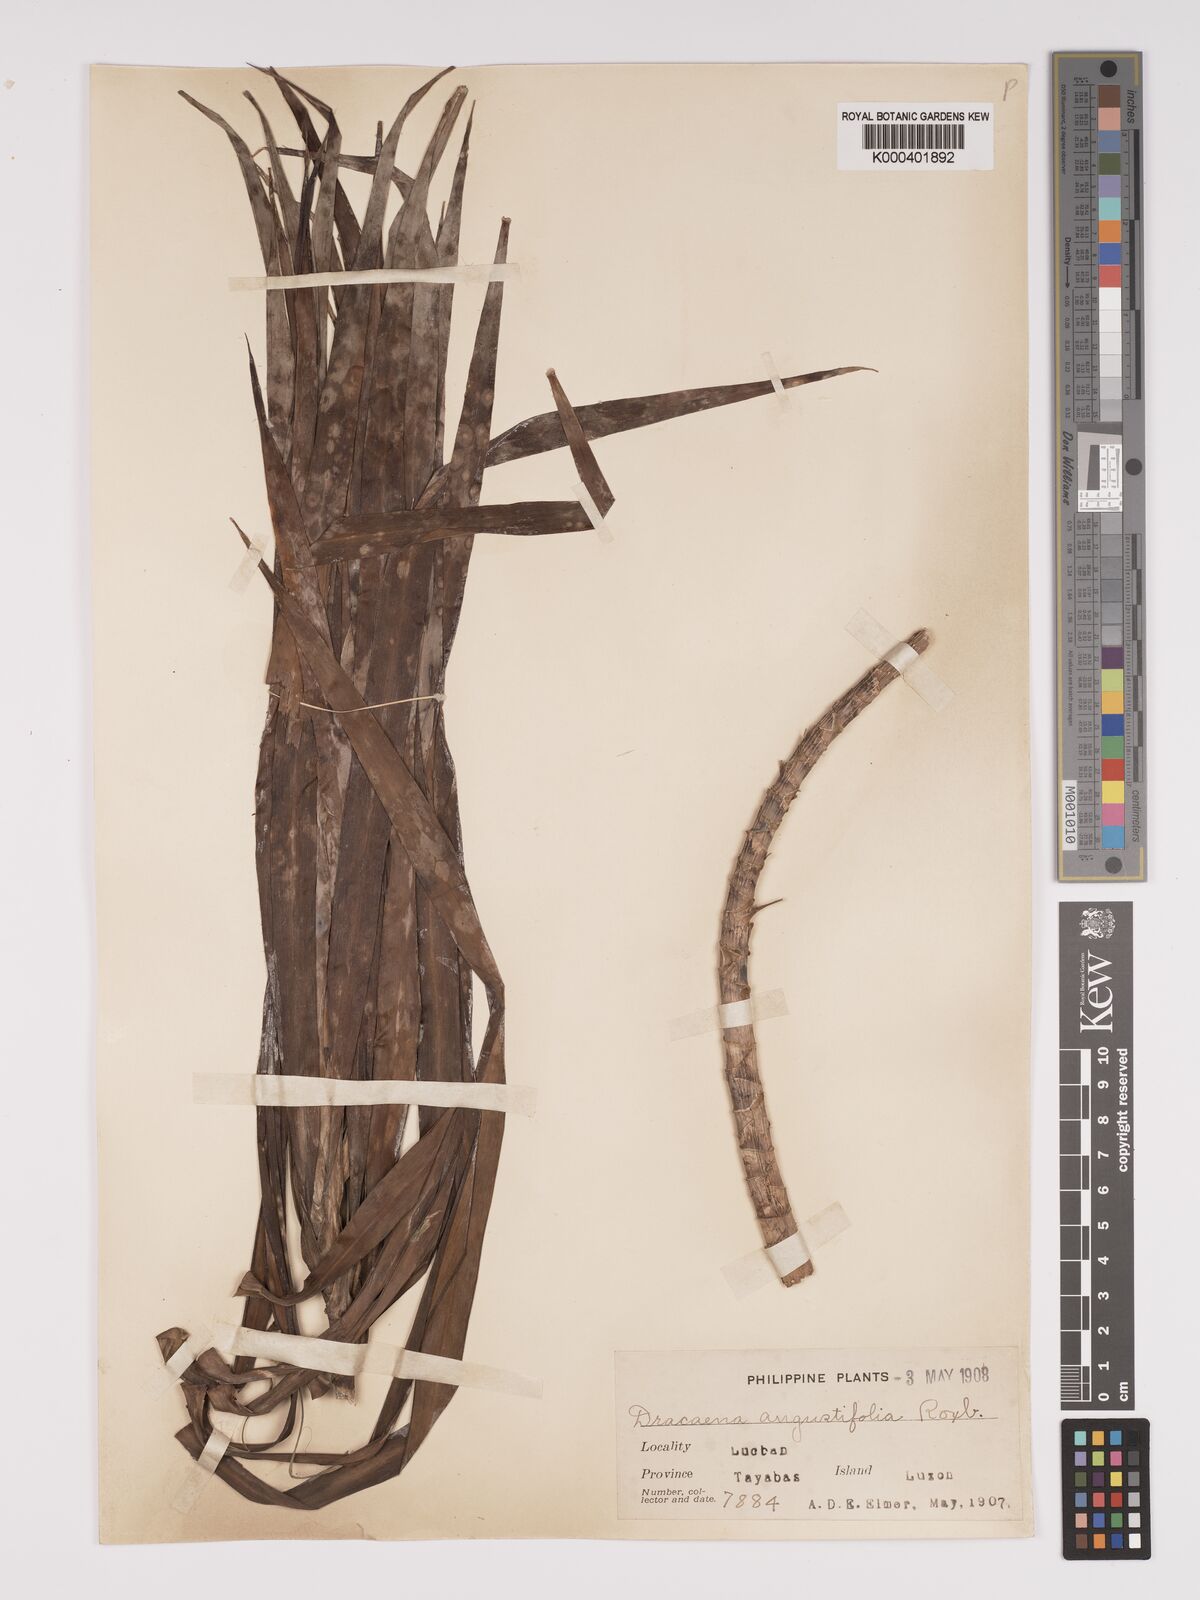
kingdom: Plantae
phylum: Tracheophyta
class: Liliopsida
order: Asparagales
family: Asparagaceae
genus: Dracaena
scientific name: Dracaena angustifolia
